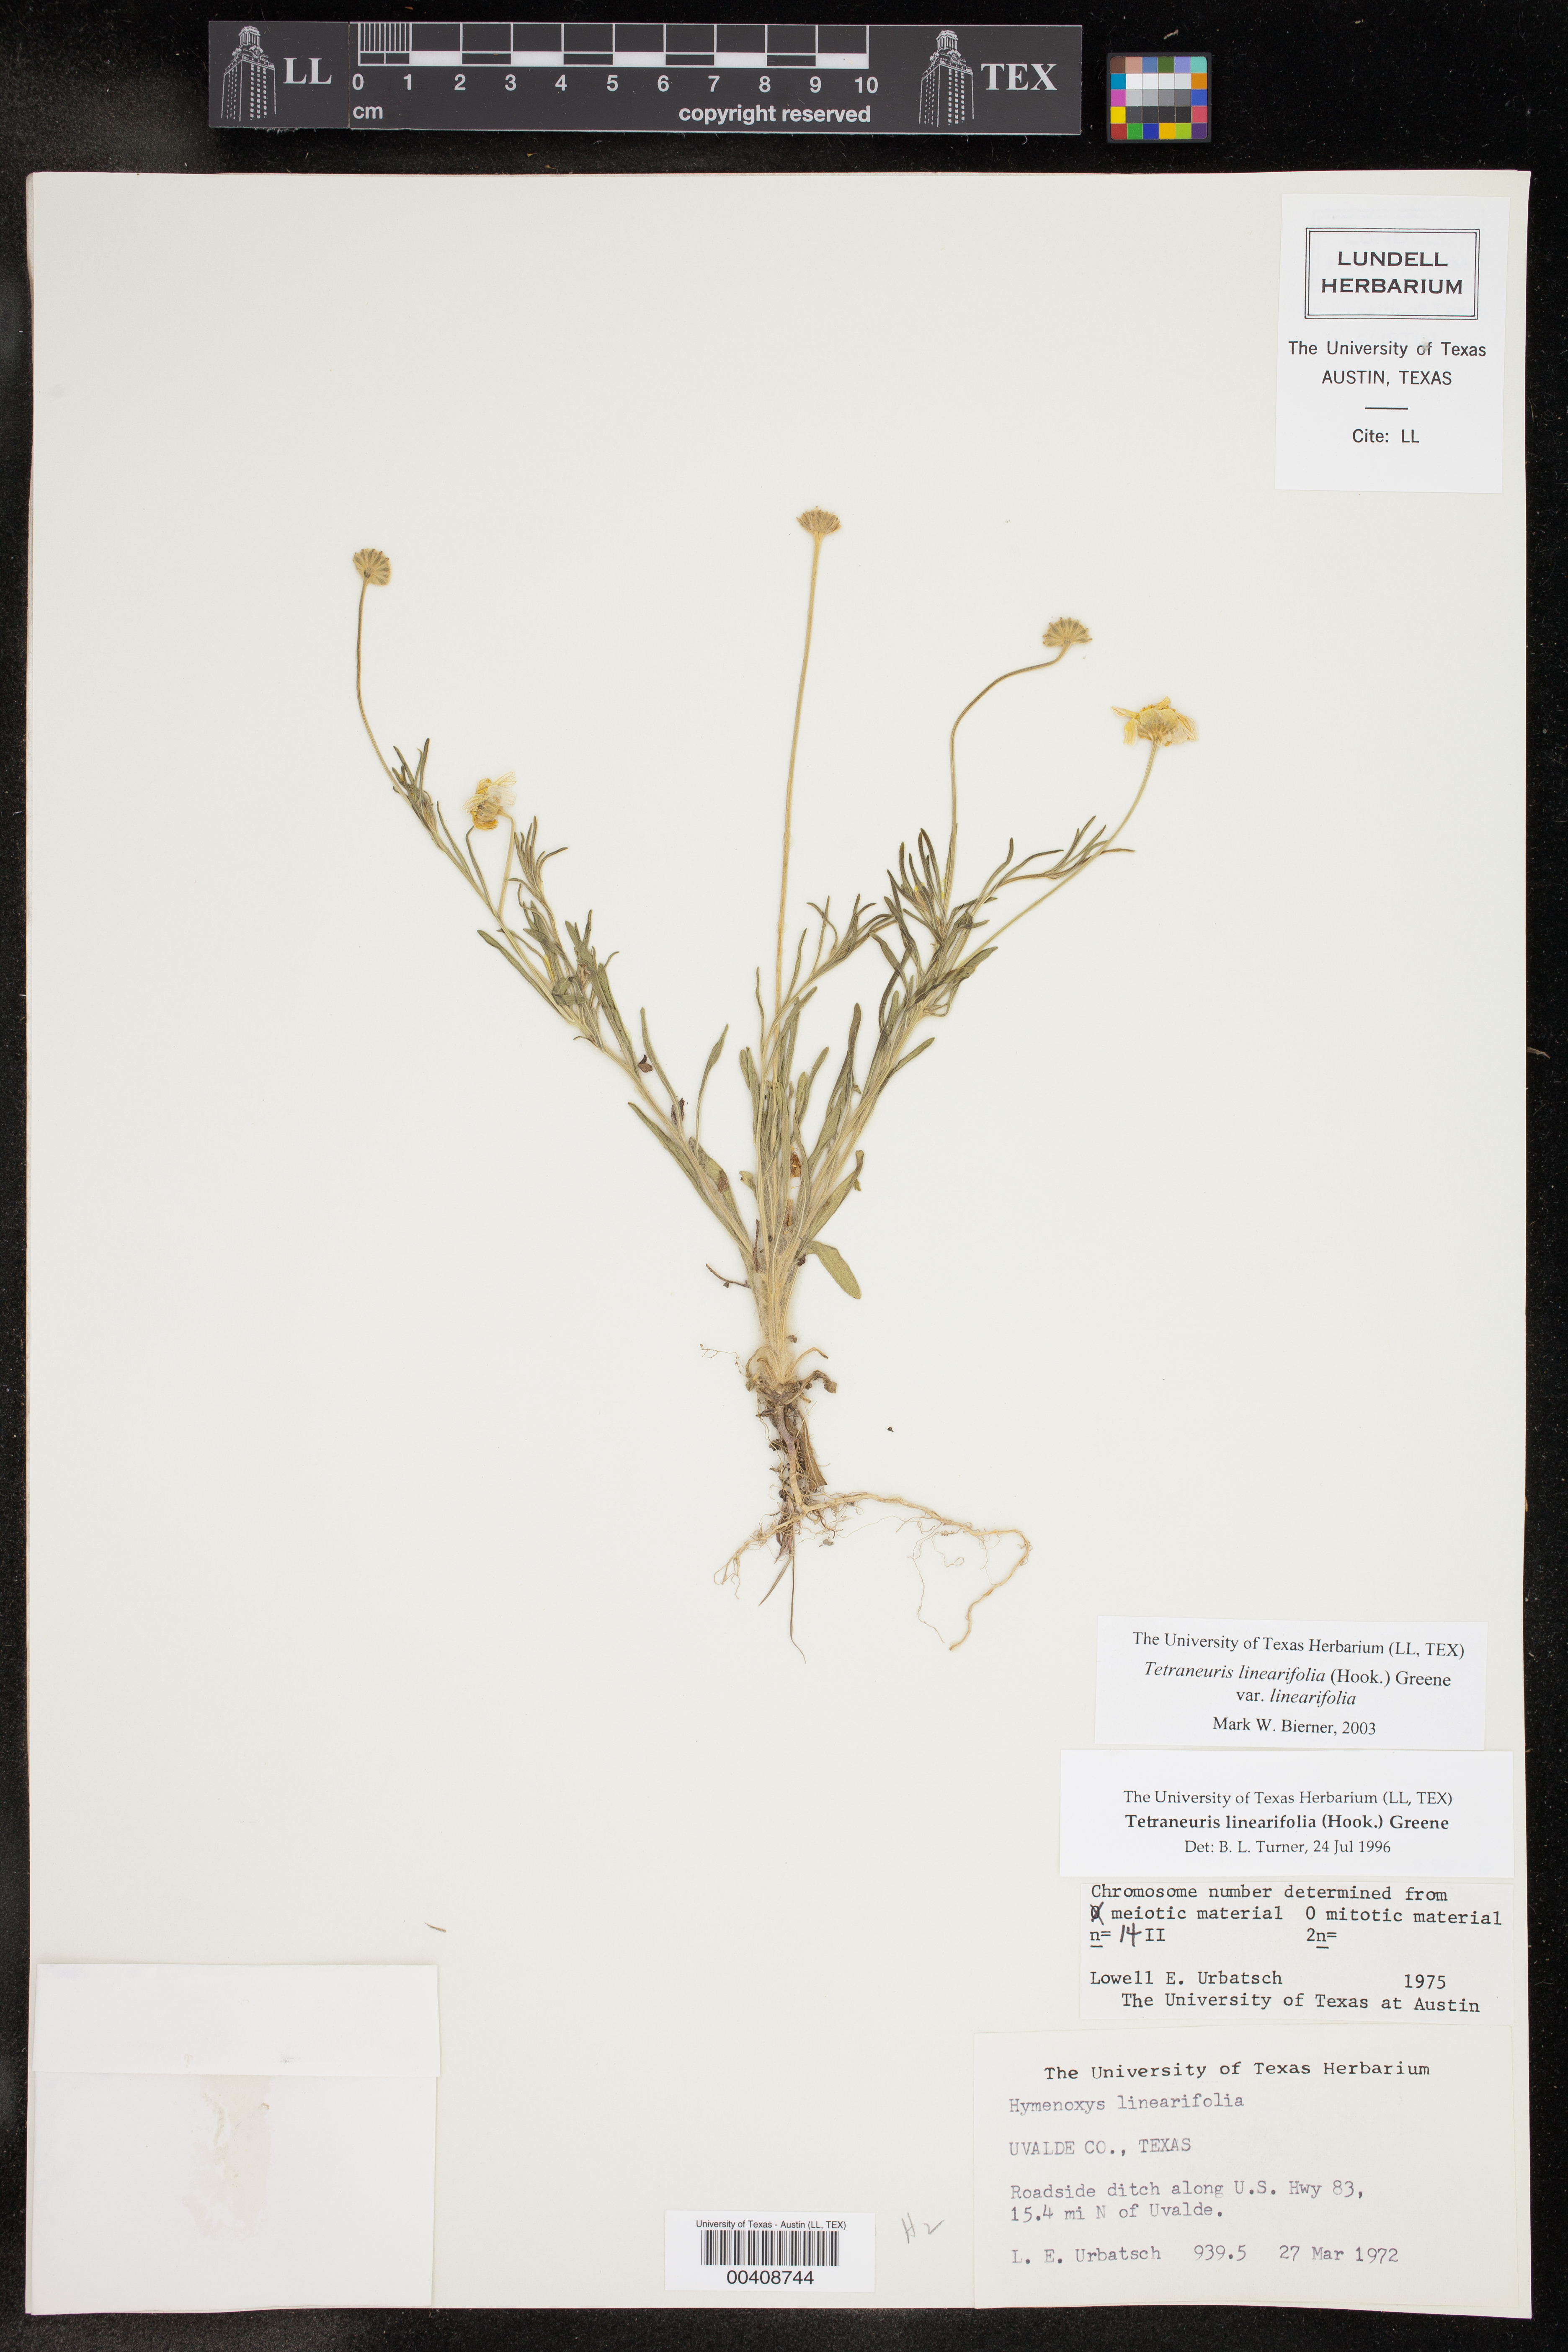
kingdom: Plantae
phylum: Tracheophyta
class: Magnoliopsida
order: Asterales
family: Asteraceae
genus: Tetraneuris
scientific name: Tetraneuris linearifolia
